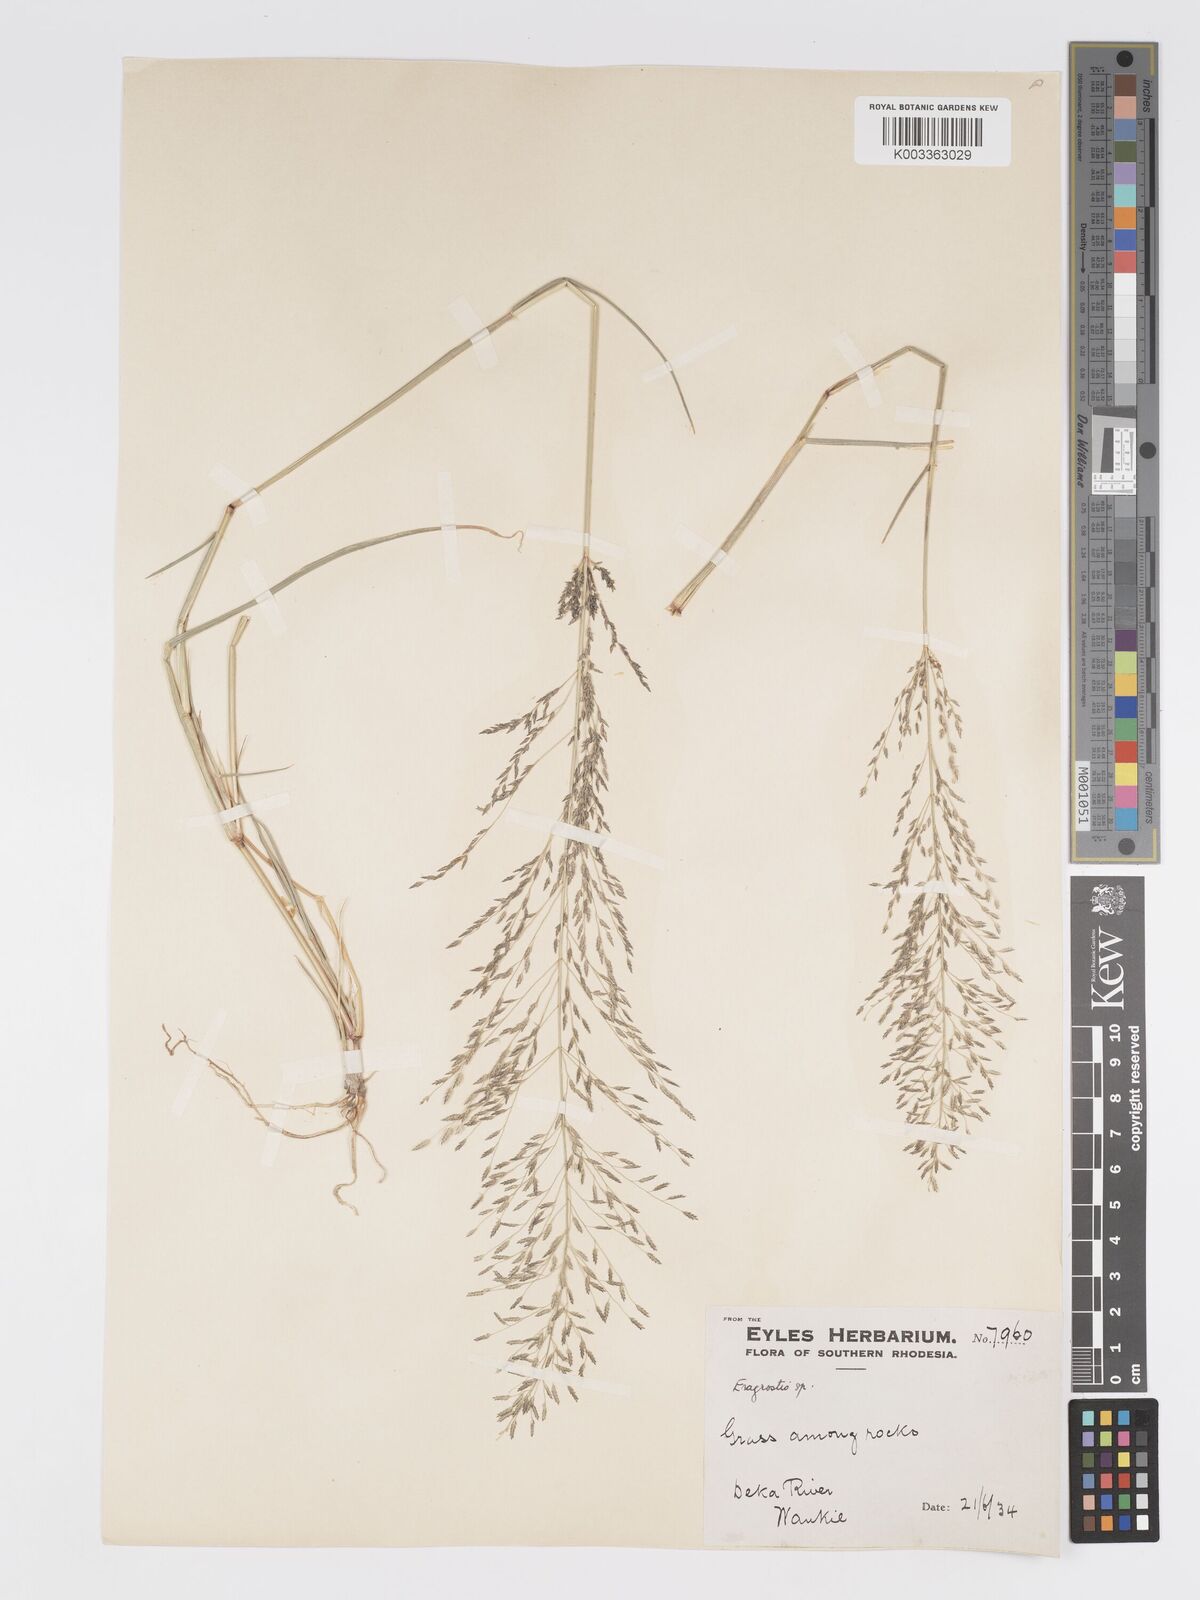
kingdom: Plantae
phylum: Tracheophyta
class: Liliopsida
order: Poales
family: Poaceae
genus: Eragrostis
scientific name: Eragrostis cylindriflora
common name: Cylinderflower lovegrass
